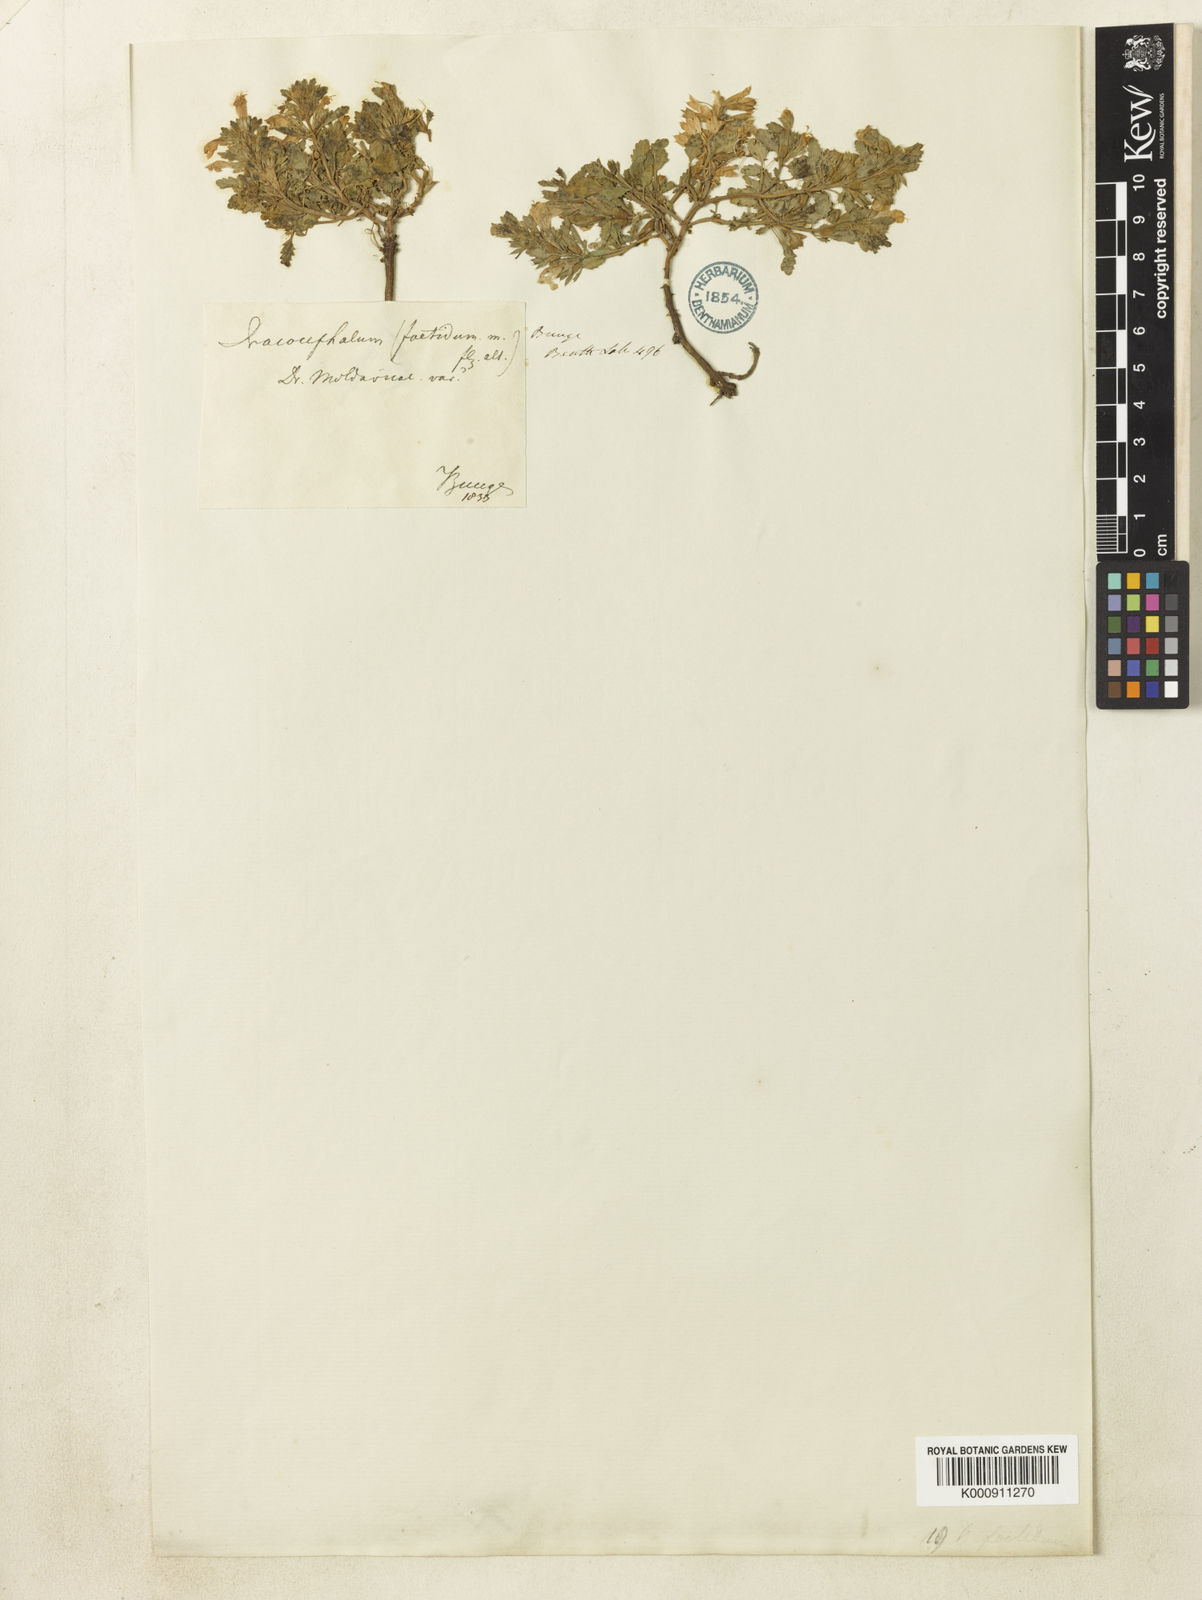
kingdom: Plantae
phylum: Tracheophyta
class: Magnoliopsida
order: Lamiales
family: Lamiaceae
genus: Dracocephalum
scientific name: Dracocephalum foetidum
